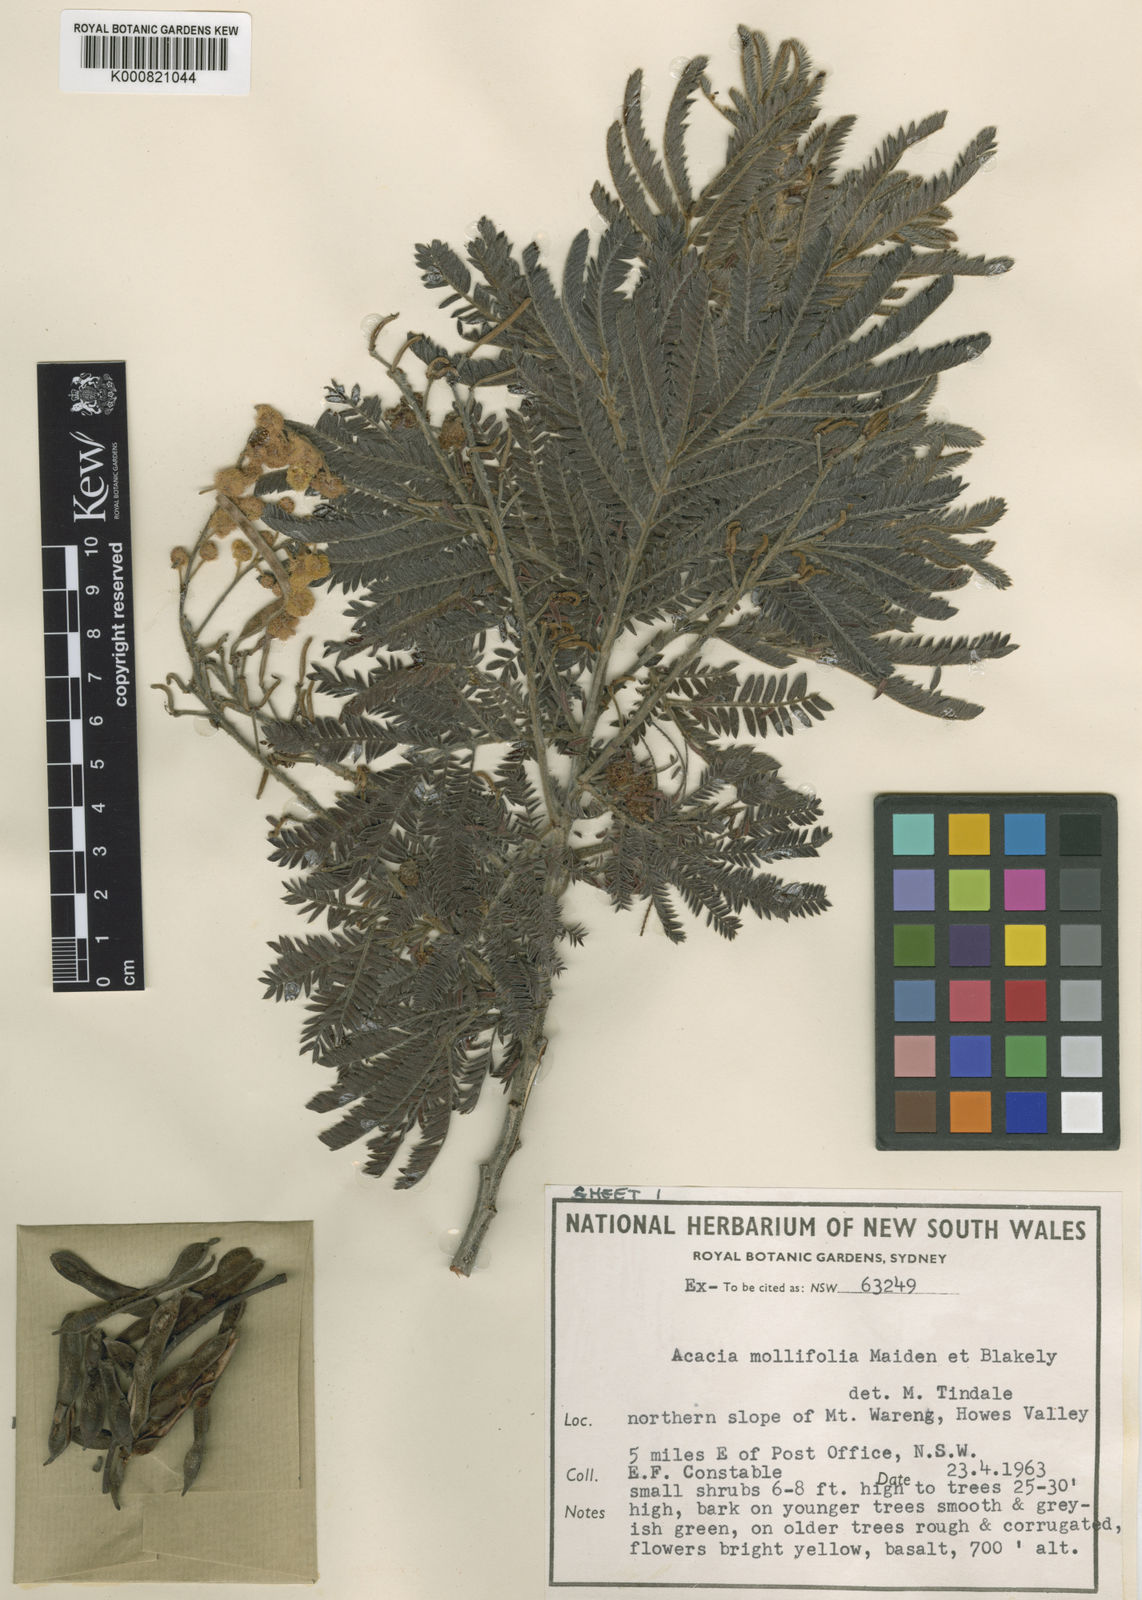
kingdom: Plantae
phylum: Tracheophyta
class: Magnoliopsida
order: Fabales
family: Fabaceae
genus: Acacia
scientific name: Acacia mollifolia
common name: Hairy silver wattle
